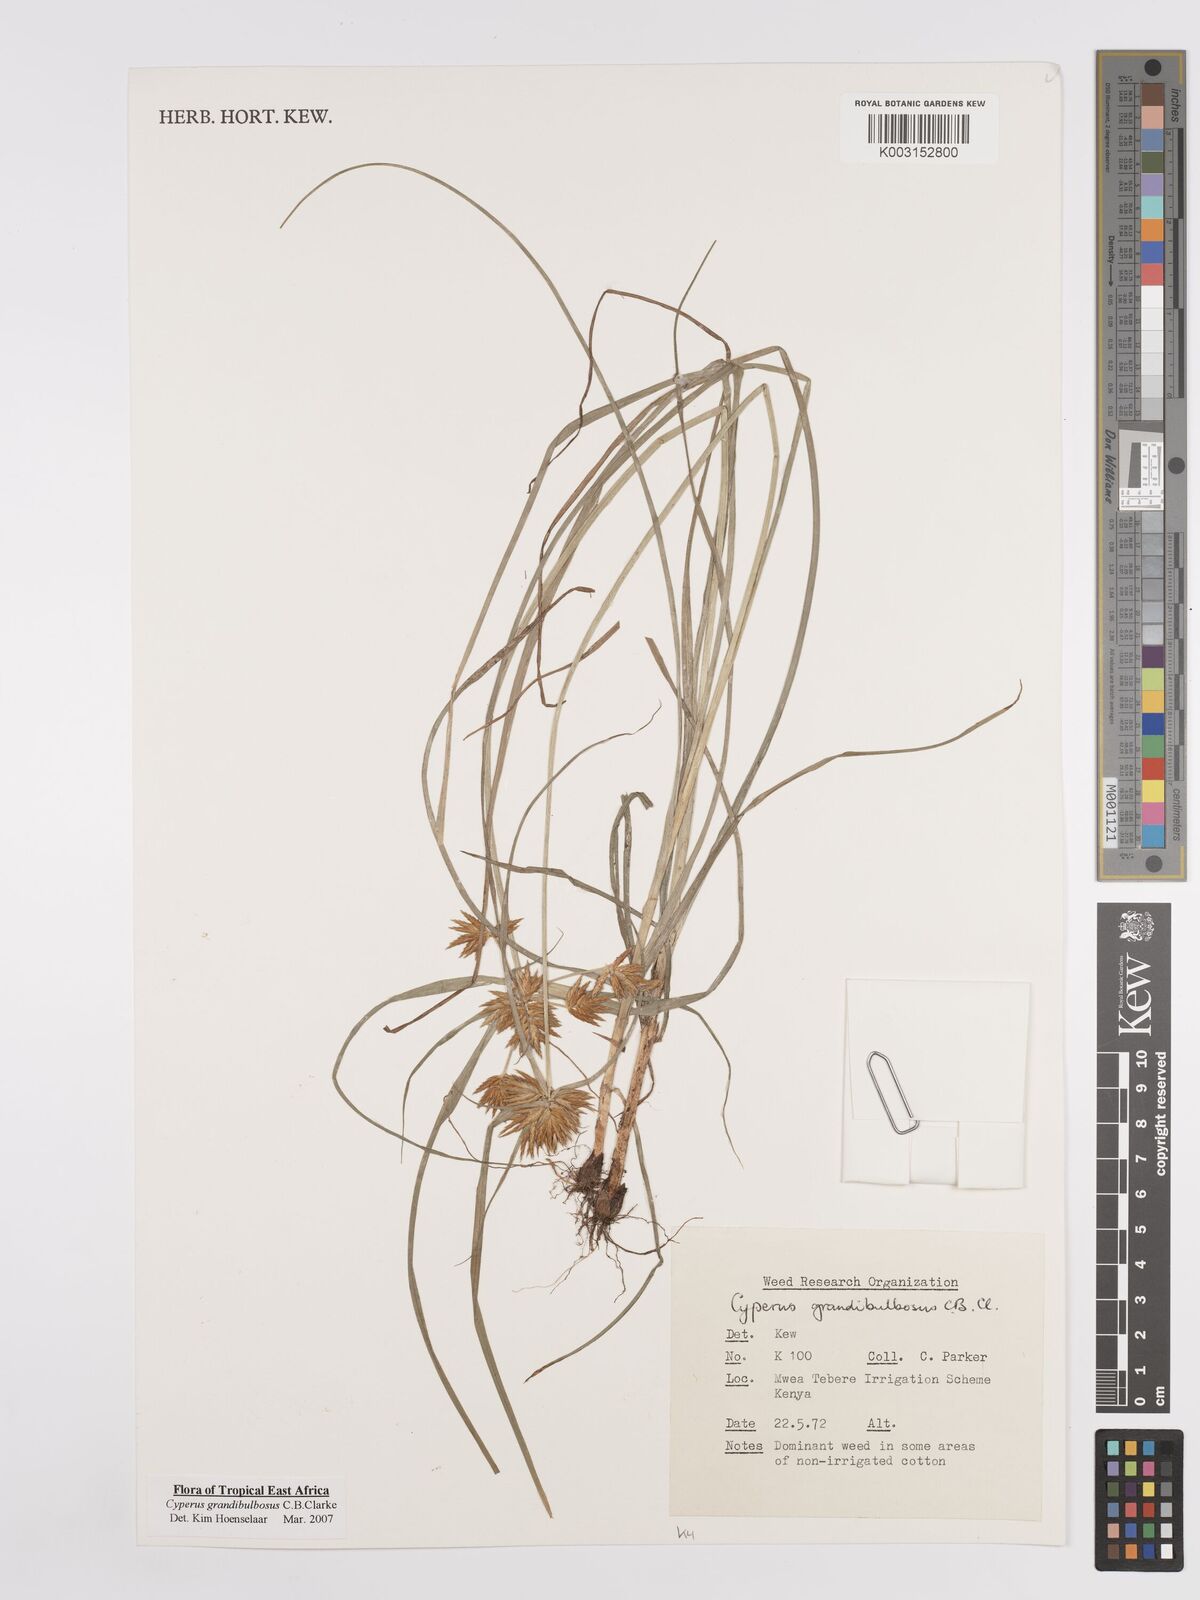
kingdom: Plantae
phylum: Tracheophyta
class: Liliopsida
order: Poales
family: Cyperaceae
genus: Cyperus
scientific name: Cyperus grandibulbosus
